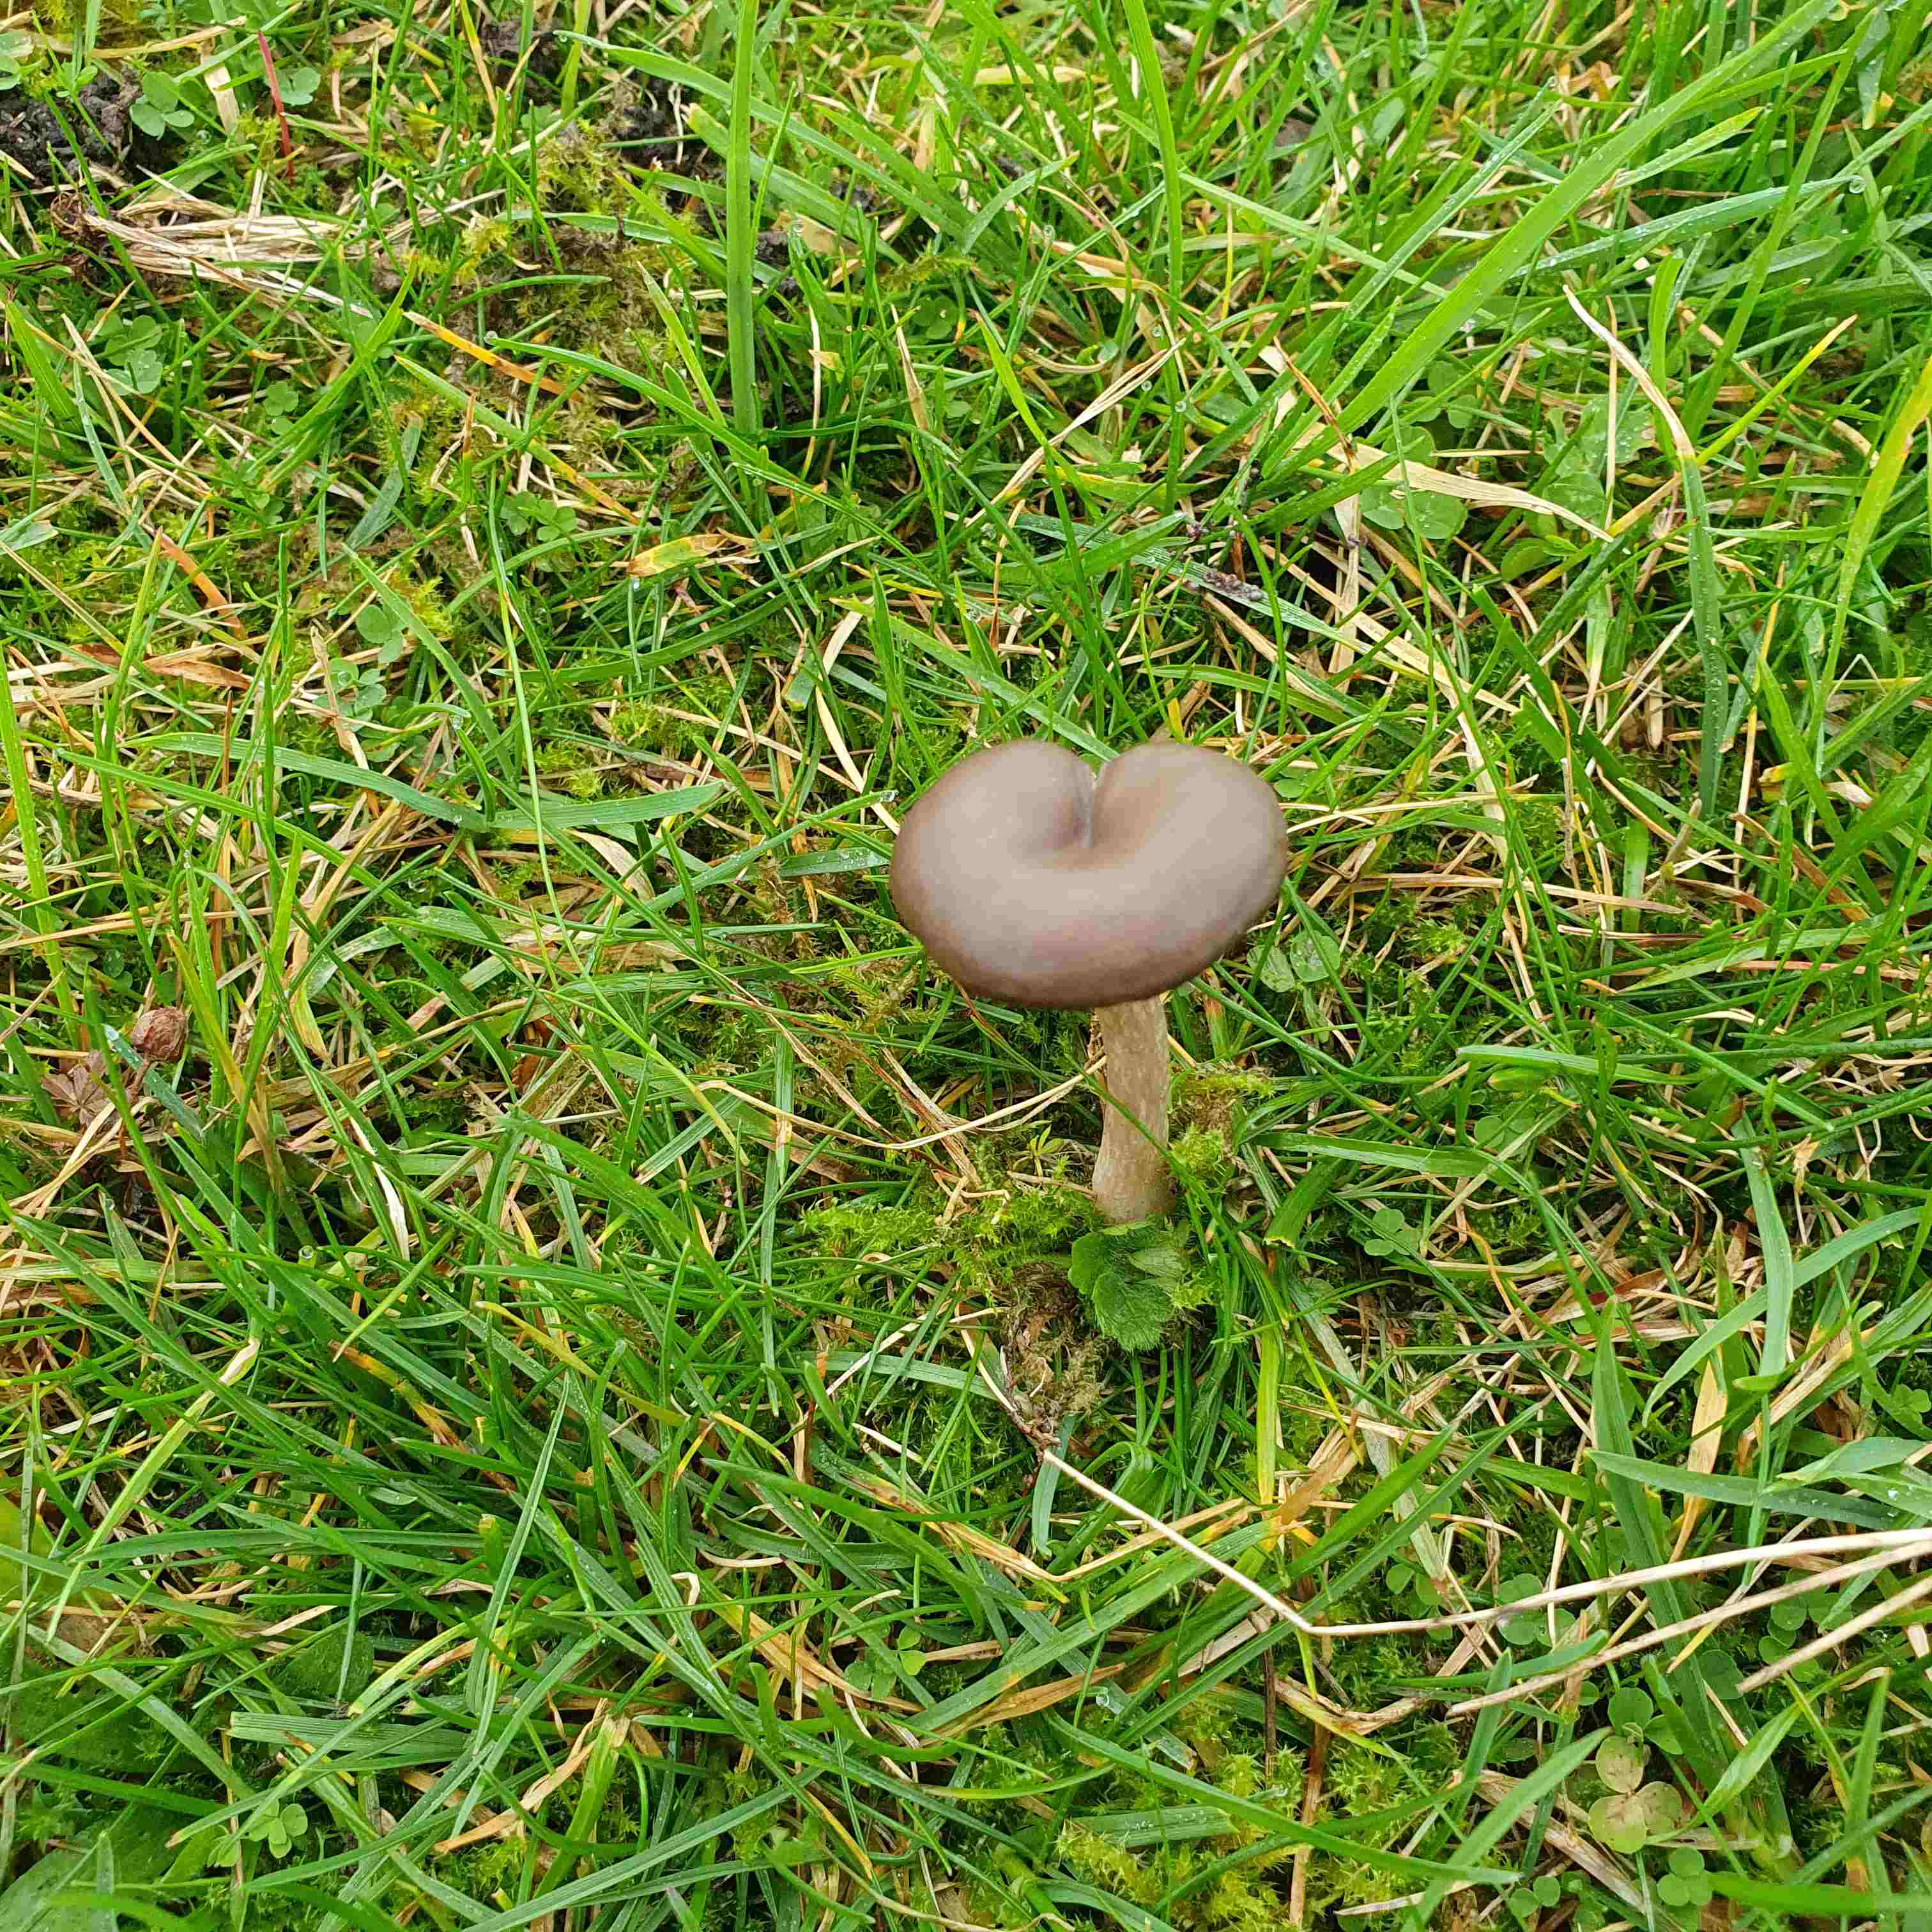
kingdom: Fungi
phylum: Basidiomycota
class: Agaricomycetes
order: Agaricales
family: Pseudoclitocybaceae
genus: Pseudoclitocybe
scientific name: Pseudoclitocybe expallens
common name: lille bægertragthat
